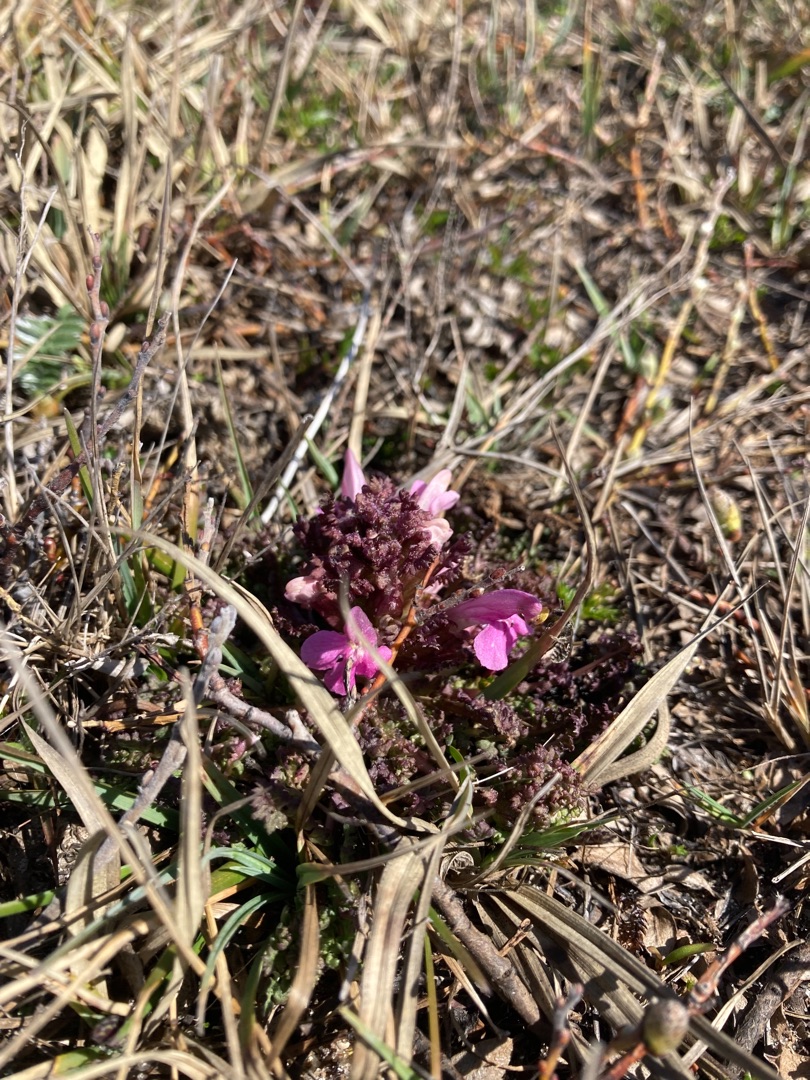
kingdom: Plantae
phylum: Tracheophyta
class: Magnoliopsida
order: Lamiales
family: Orobanchaceae
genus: Pedicularis
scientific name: Pedicularis sylvatica
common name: Mose-troldurt
